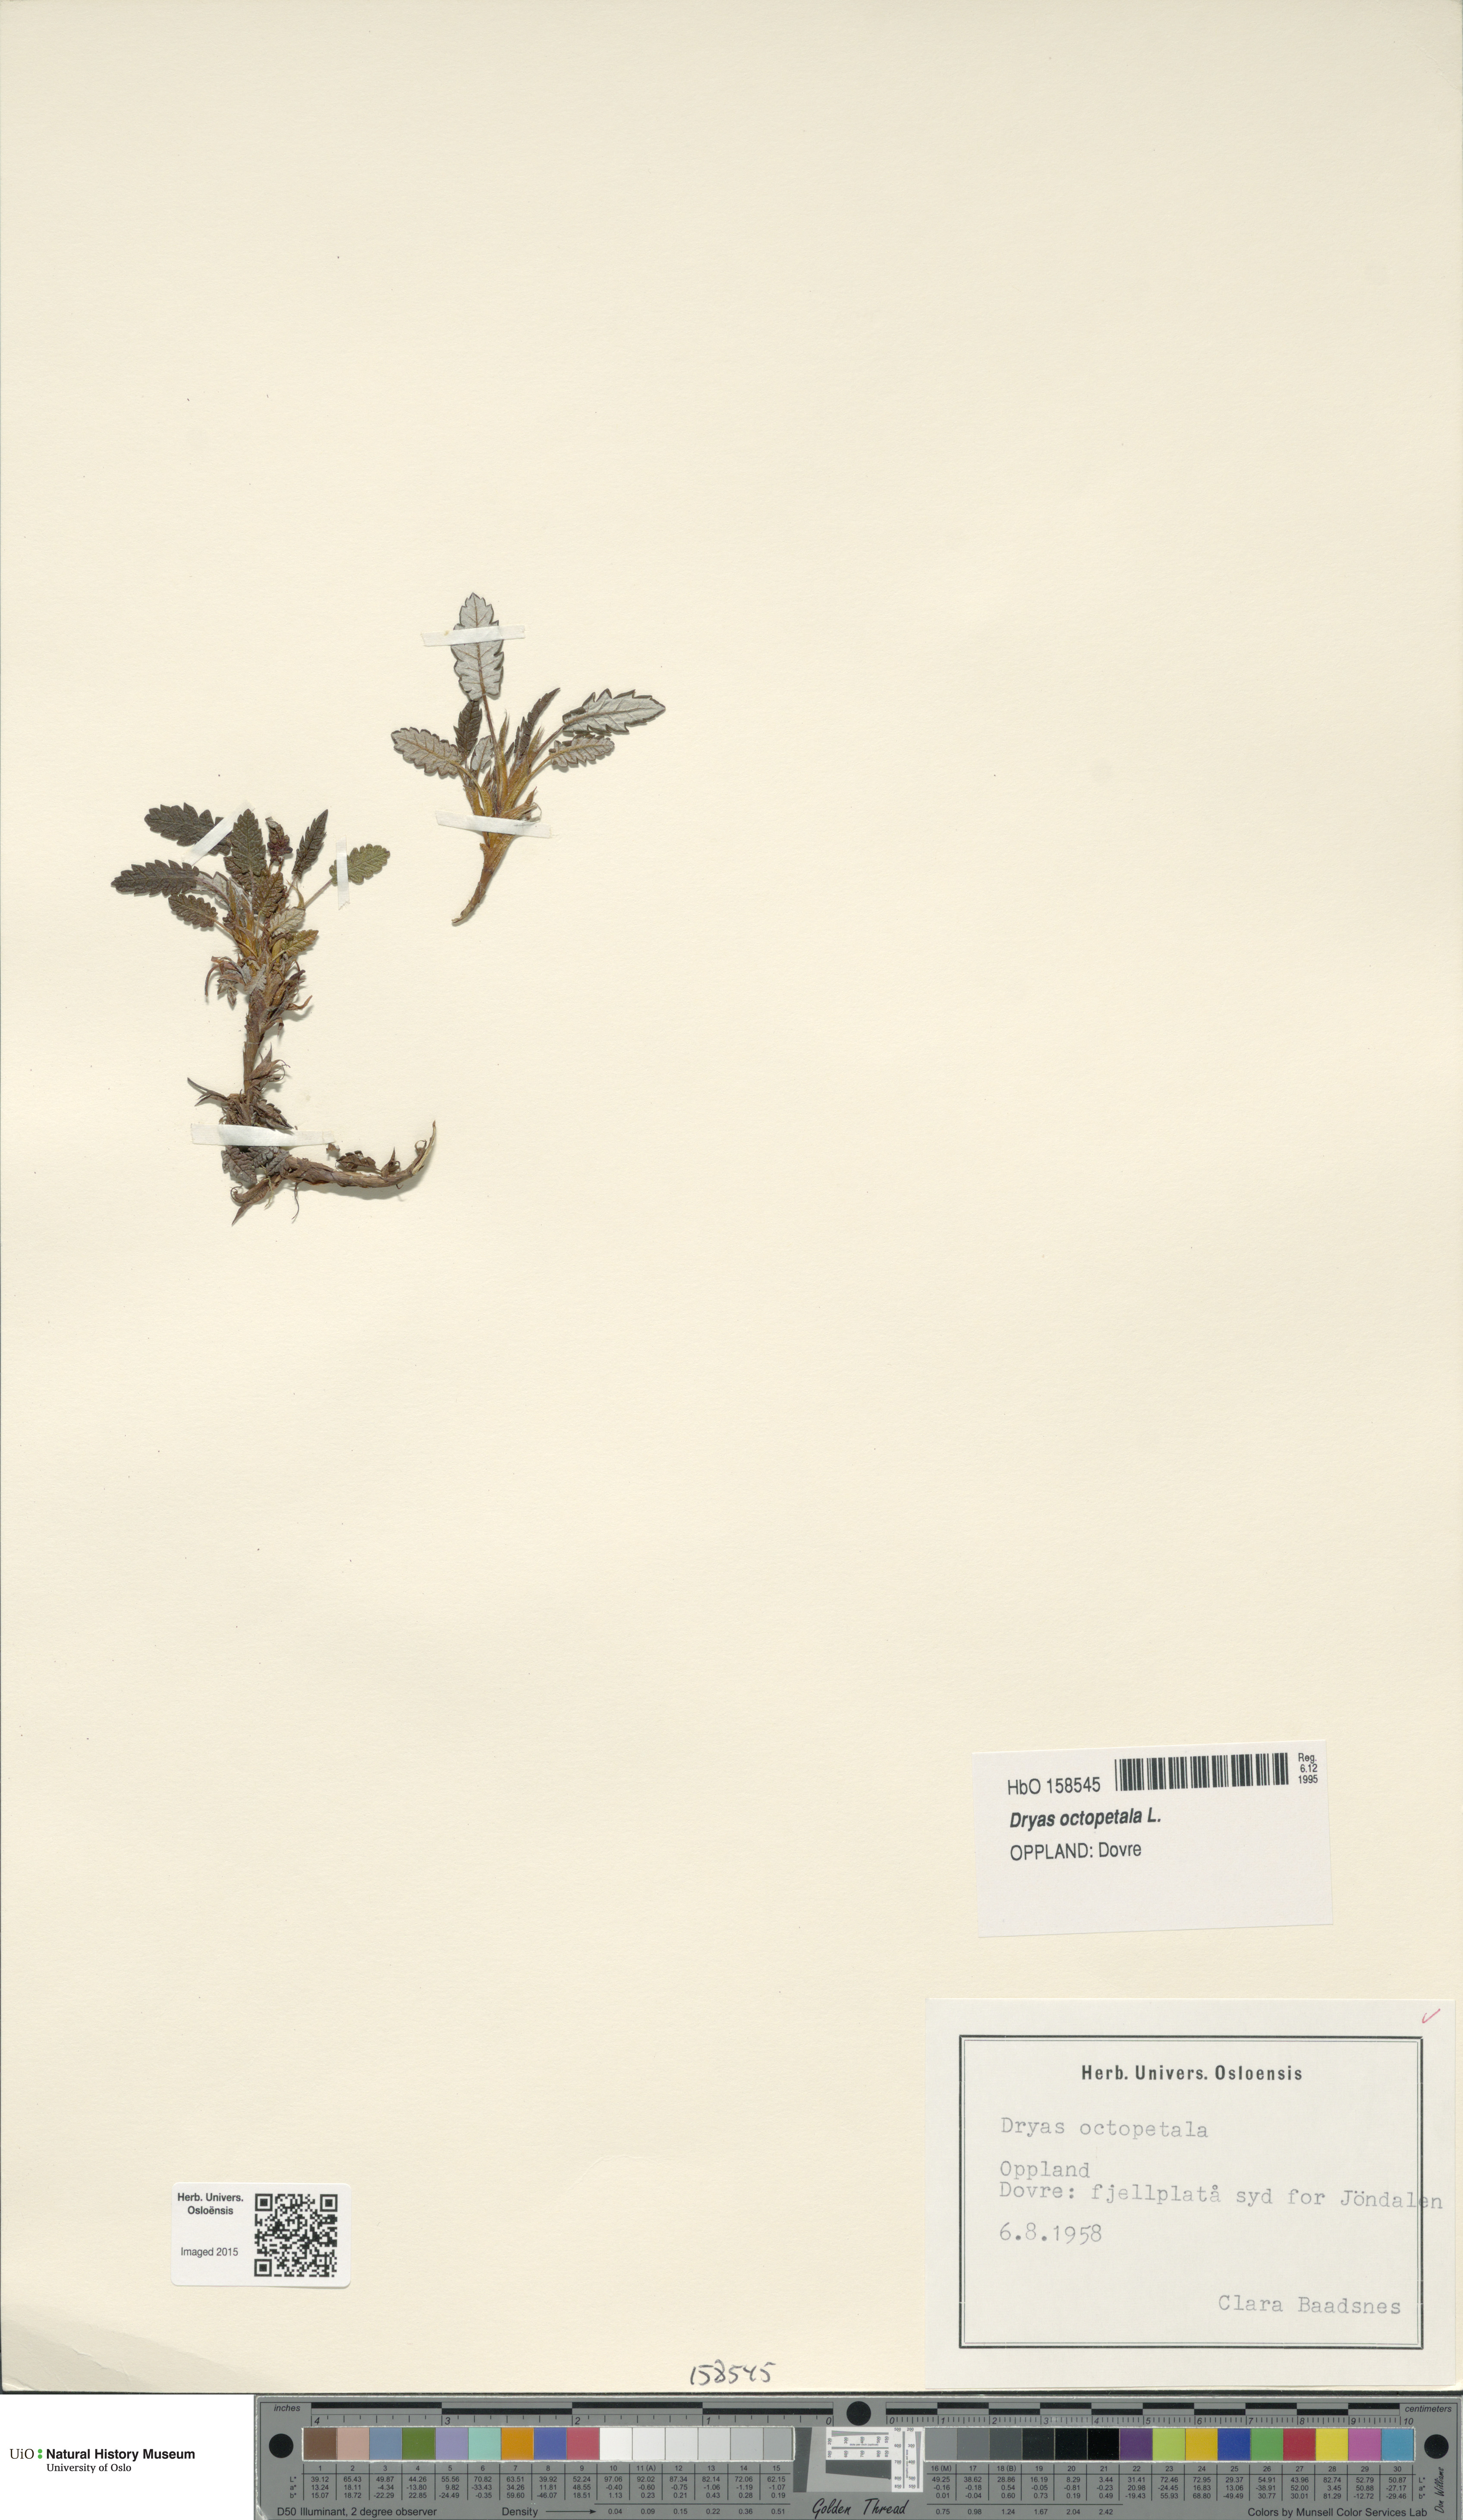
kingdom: Plantae
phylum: Tracheophyta
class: Magnoliopsida
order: Rosales
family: Rosaceae
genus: Dryas
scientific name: Dryas octopetala
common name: Eight-petal mountain-avens
